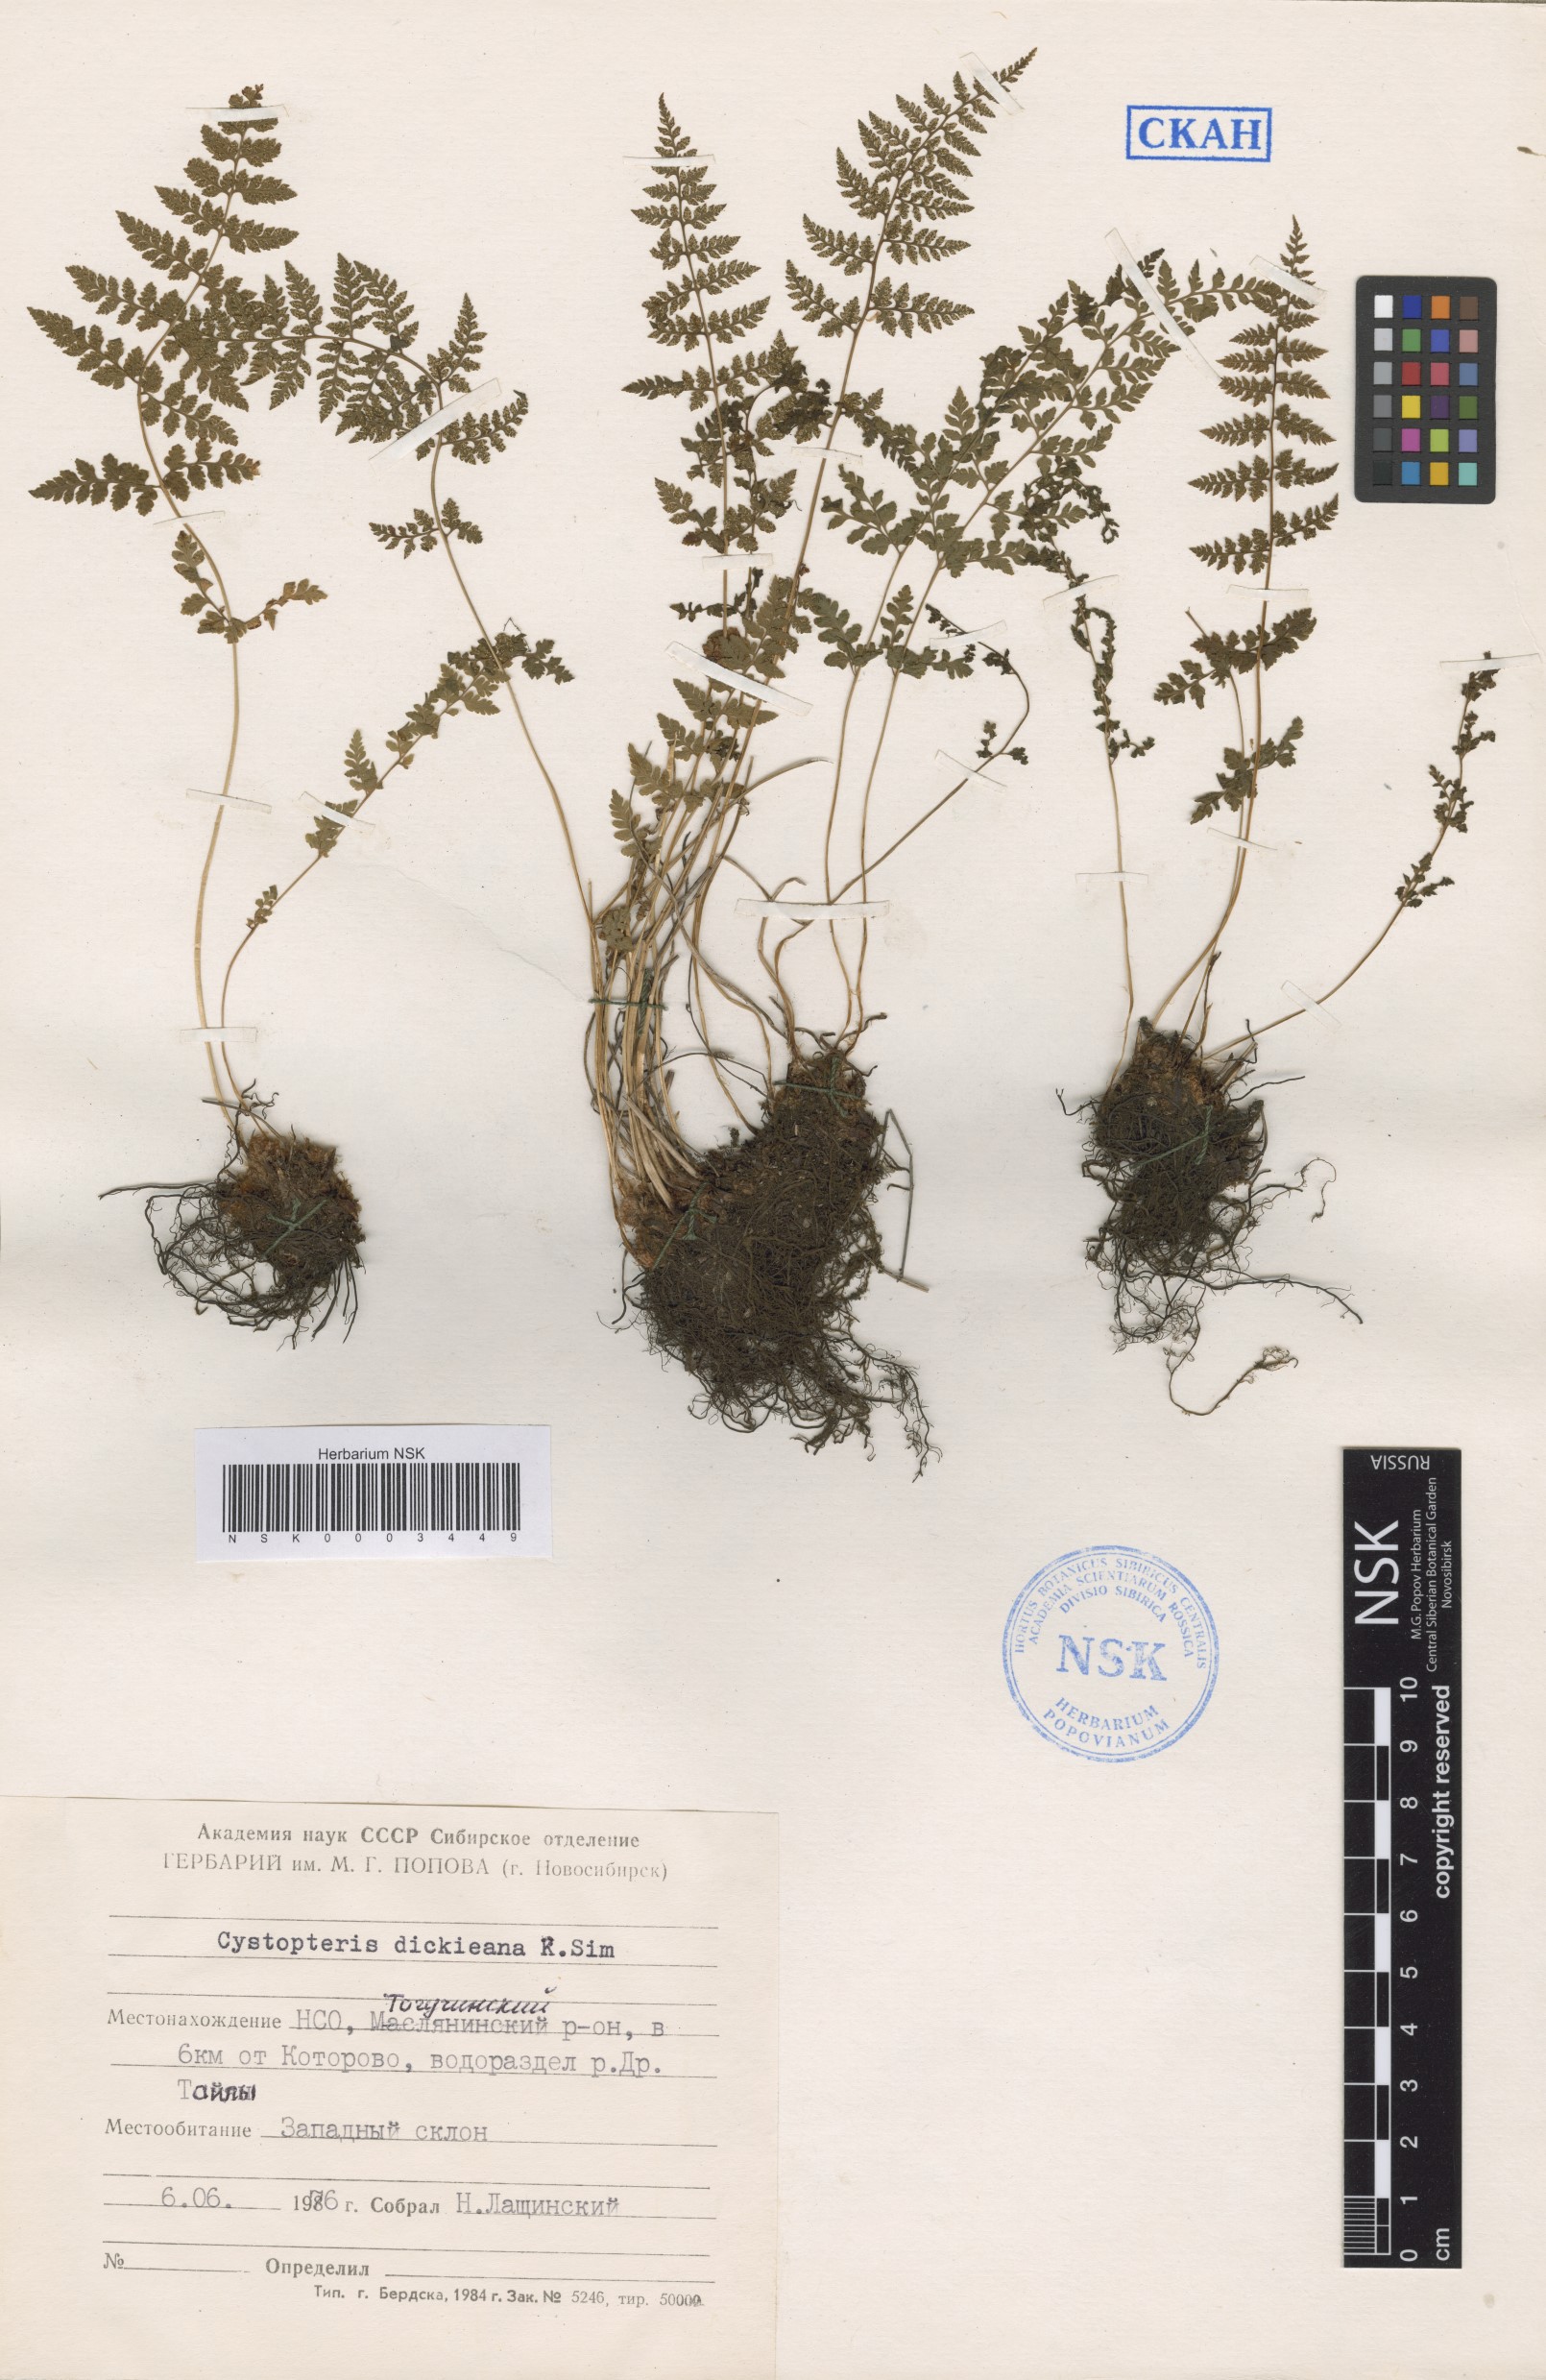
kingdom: Plantae
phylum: Tracheophyta
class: Polypodiopsida
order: Polypodiales
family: Cystopteridaceae
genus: Cystopteris
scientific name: Cystopteris dickieana
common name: Dickie's bladder-fern
